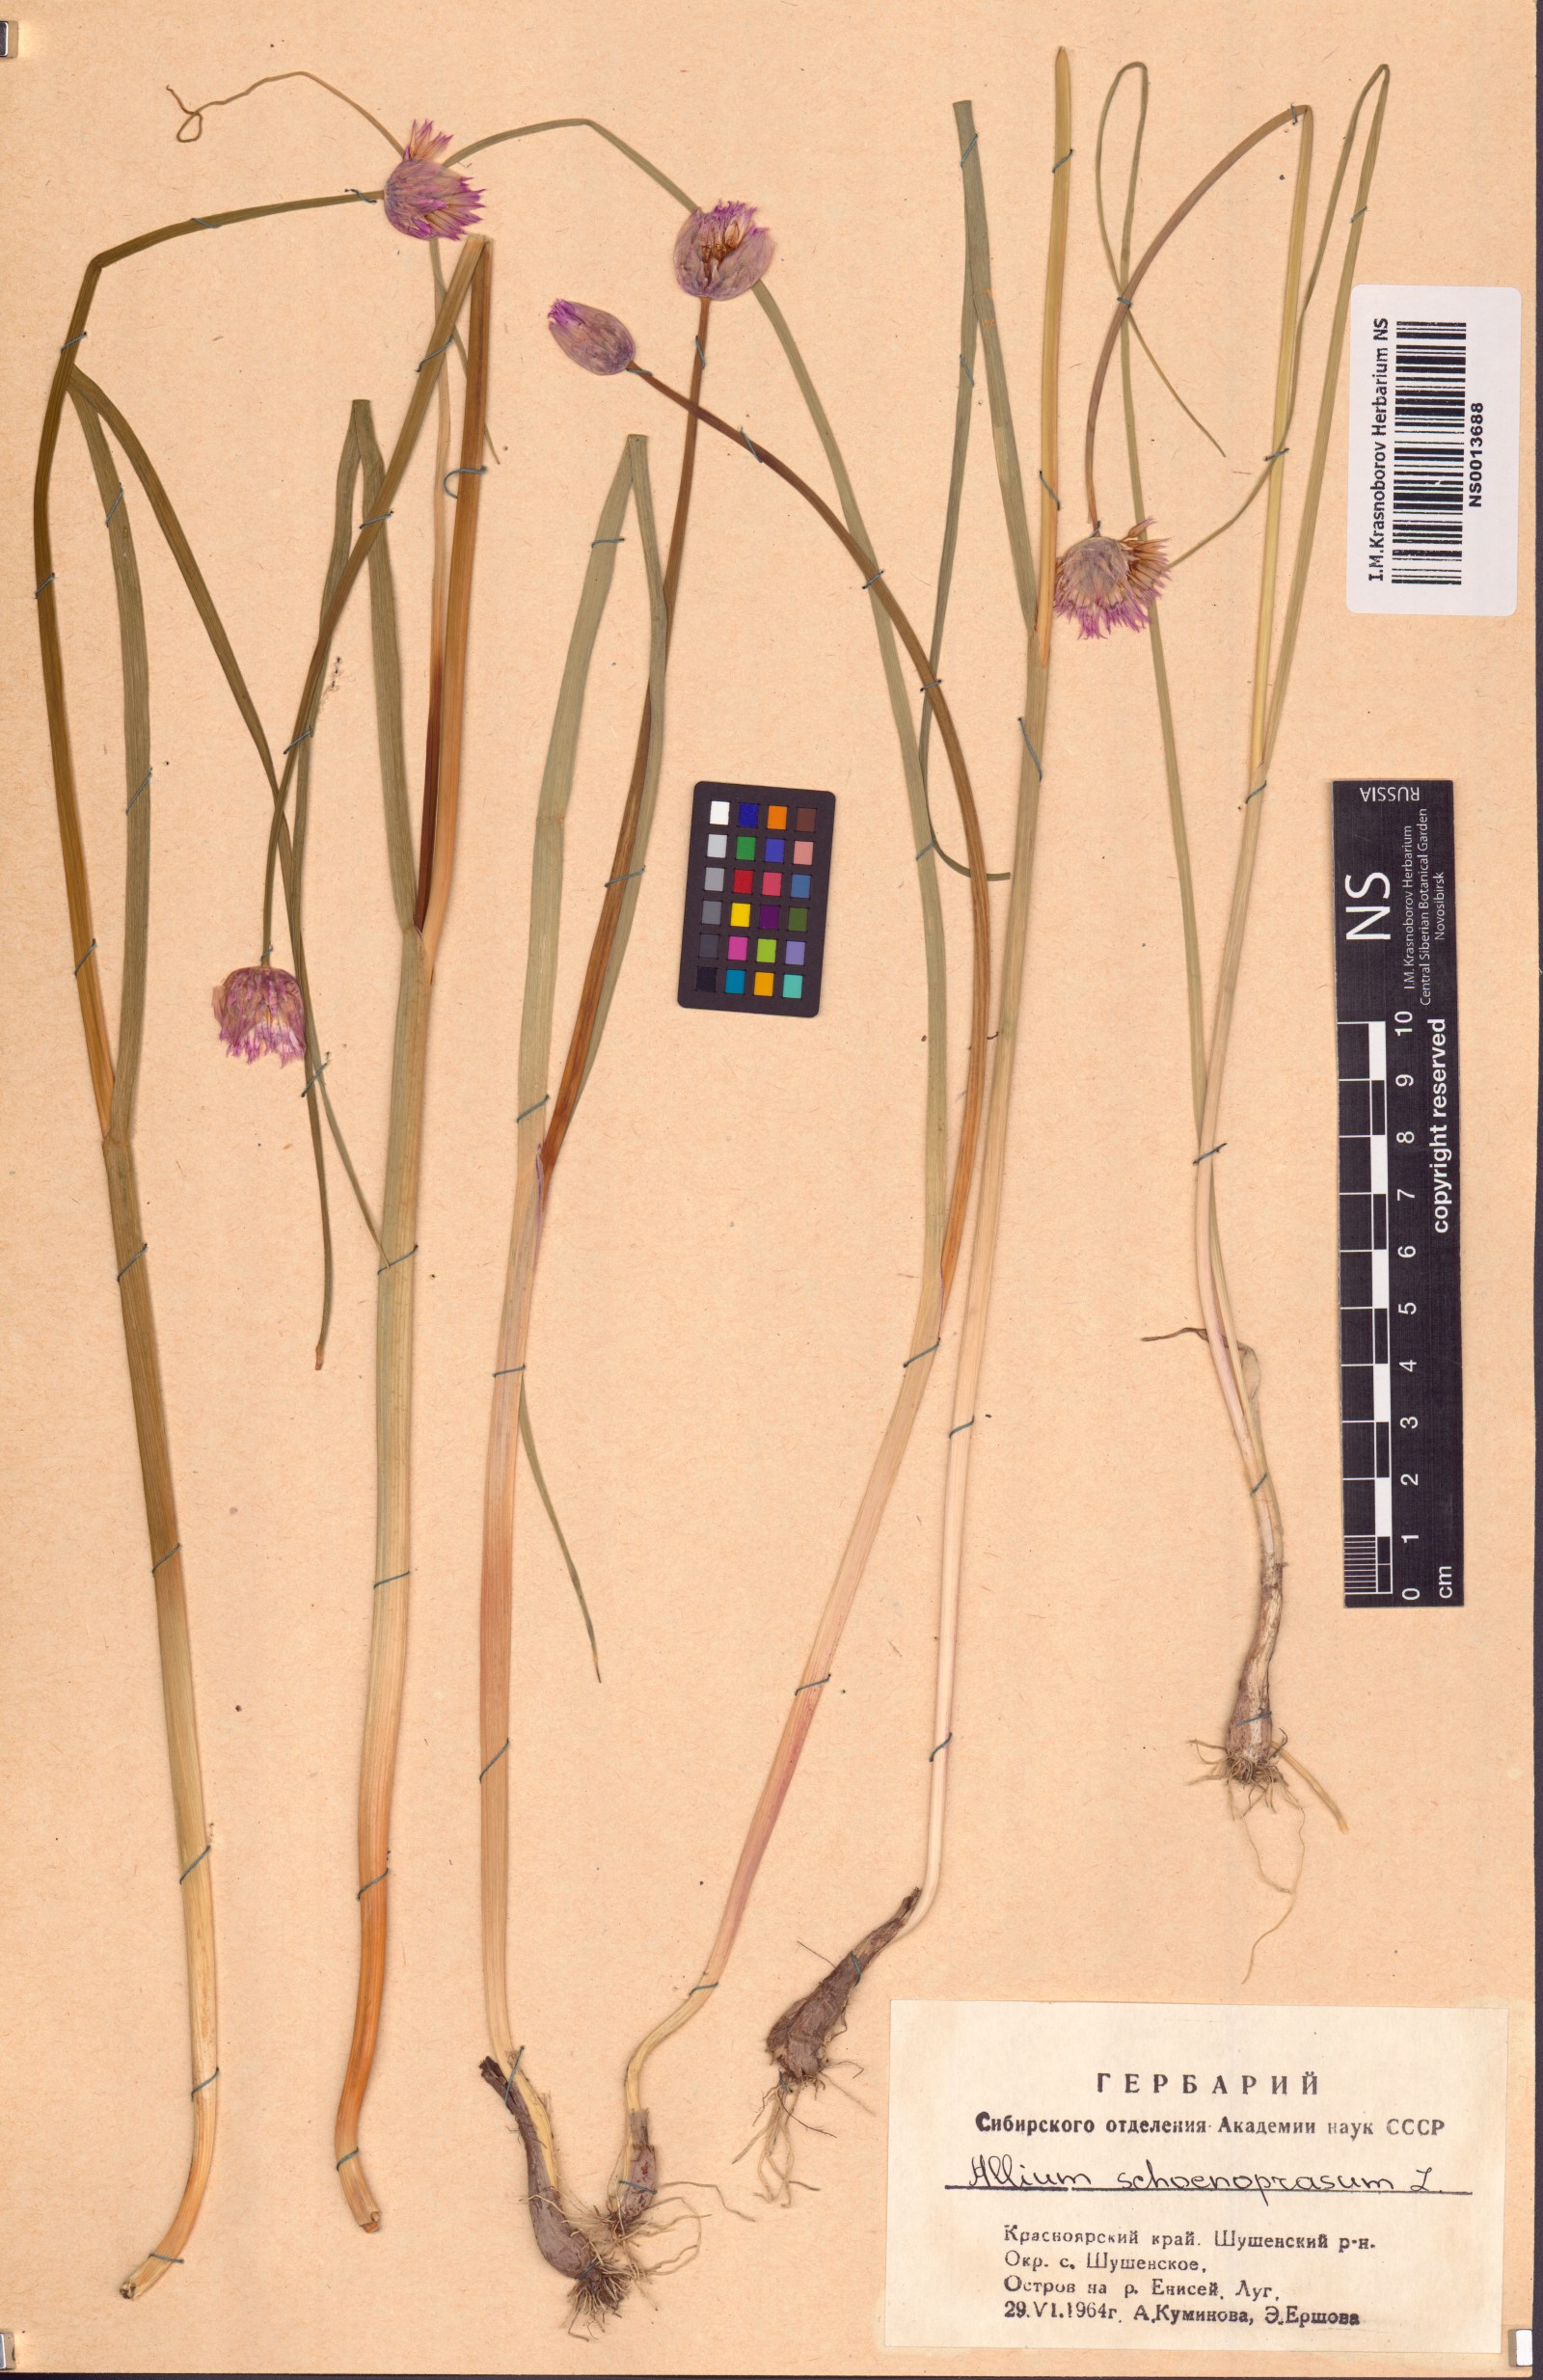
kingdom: Plantae
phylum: Tracheophyta
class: Liliopsida
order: Asparagales
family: Amaryllidaceae
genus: Allium
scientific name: Allium schoenoprasum
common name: Chives
